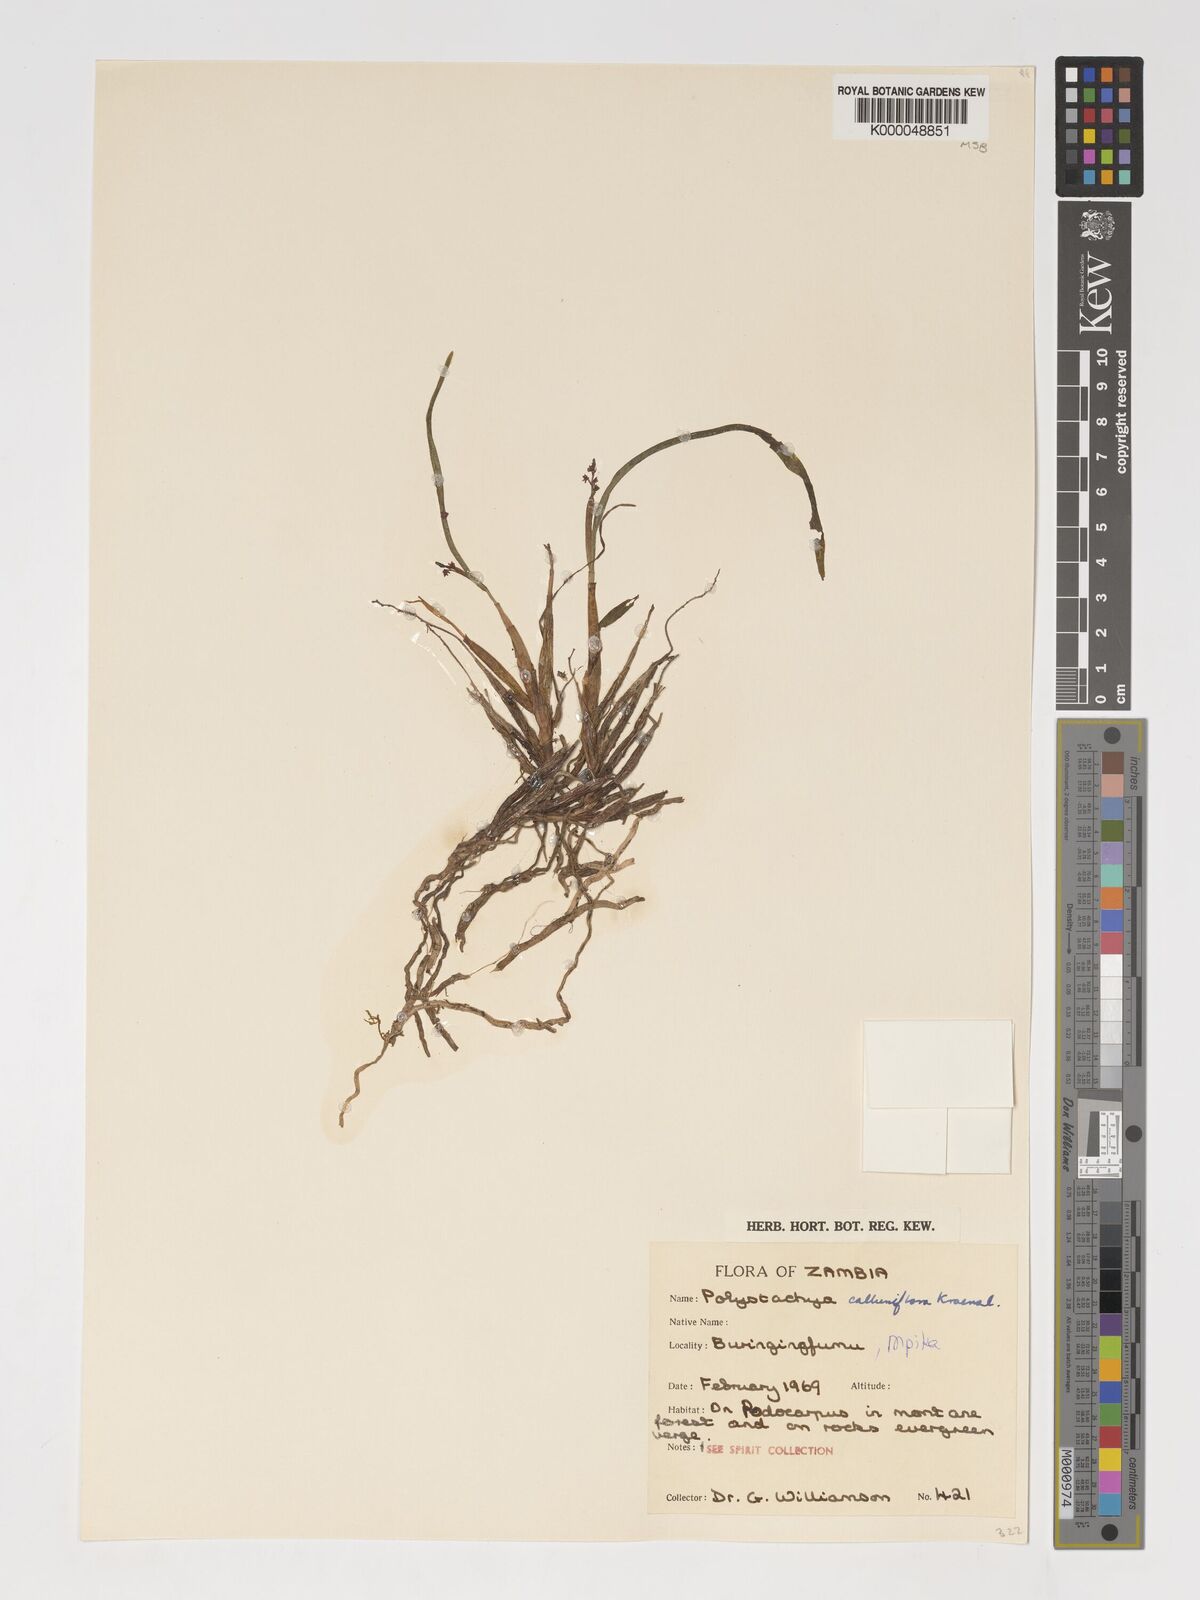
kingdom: Plantae
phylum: Tracheophyta
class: Liliopsida
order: Asparagales
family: Orchidaceae
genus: Polystachya
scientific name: Polystachya hologlossa
